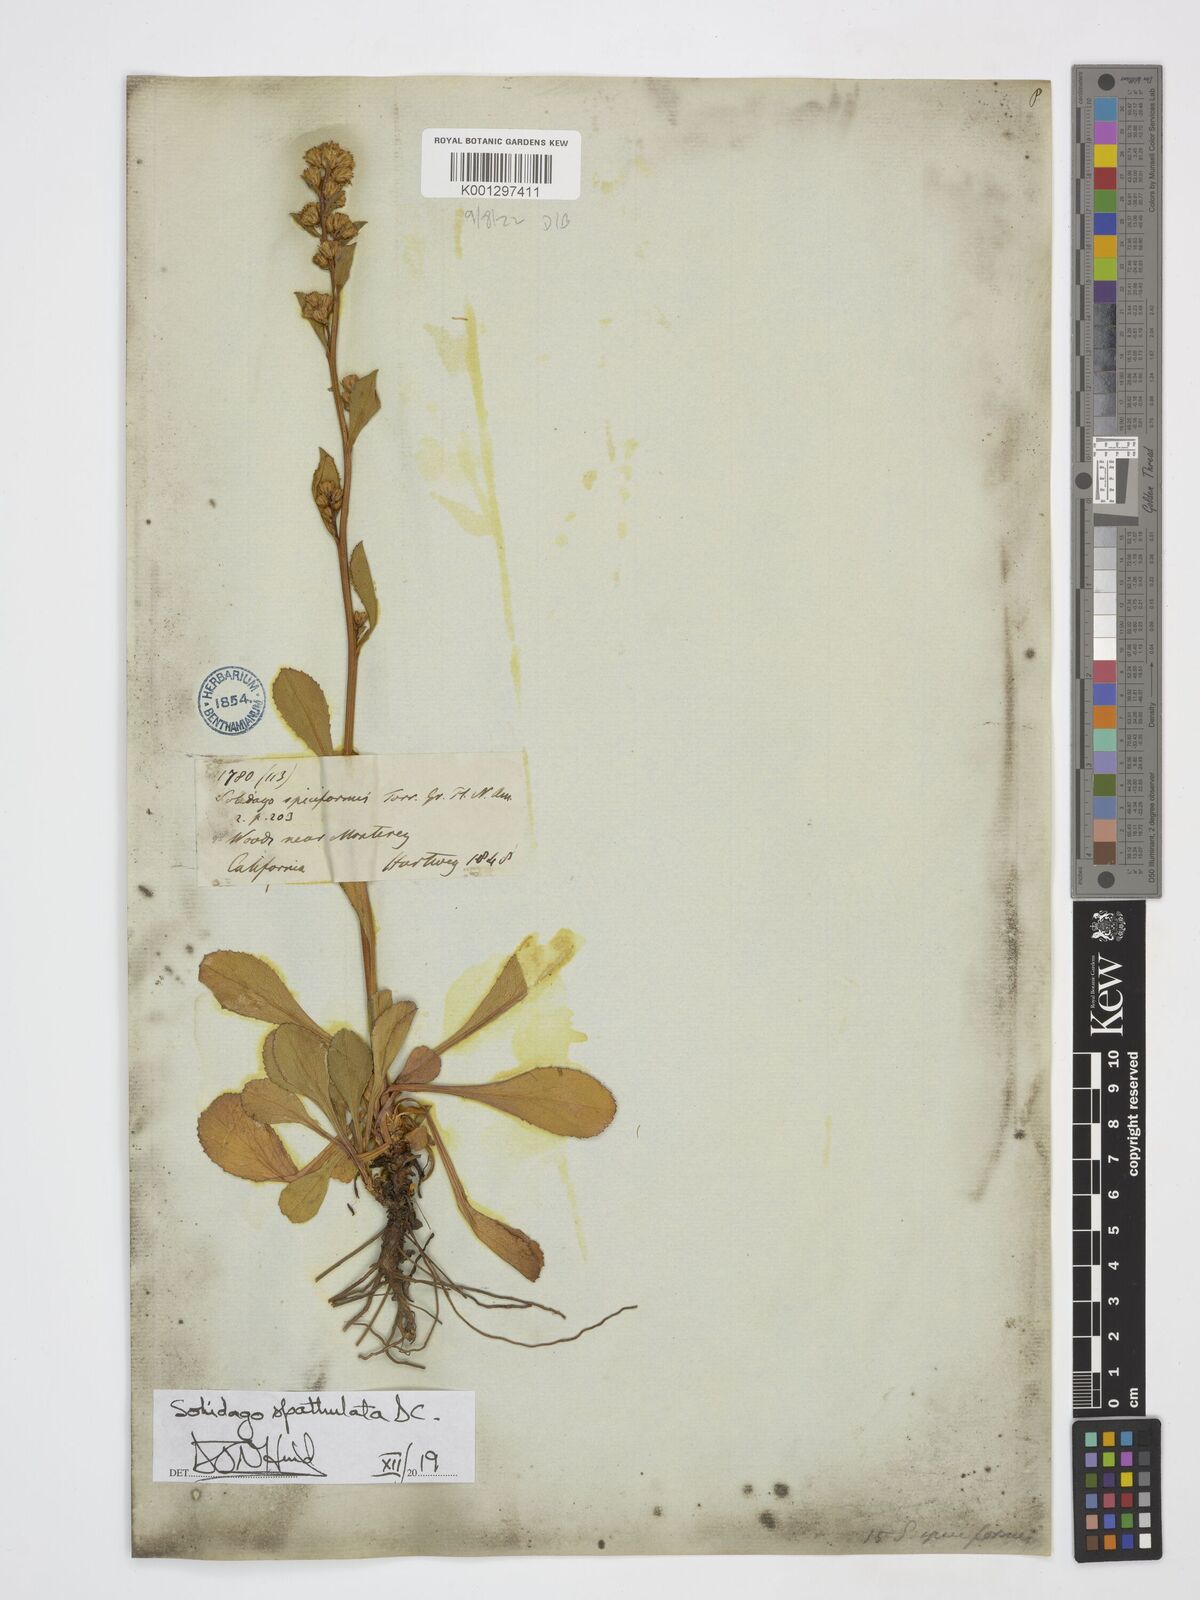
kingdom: Plantae
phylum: Tracheophyta
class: Magnoliopsida
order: Asterales
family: Asteraceae
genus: Solidago
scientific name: Solidago spathulata
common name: Coast goldenrod
